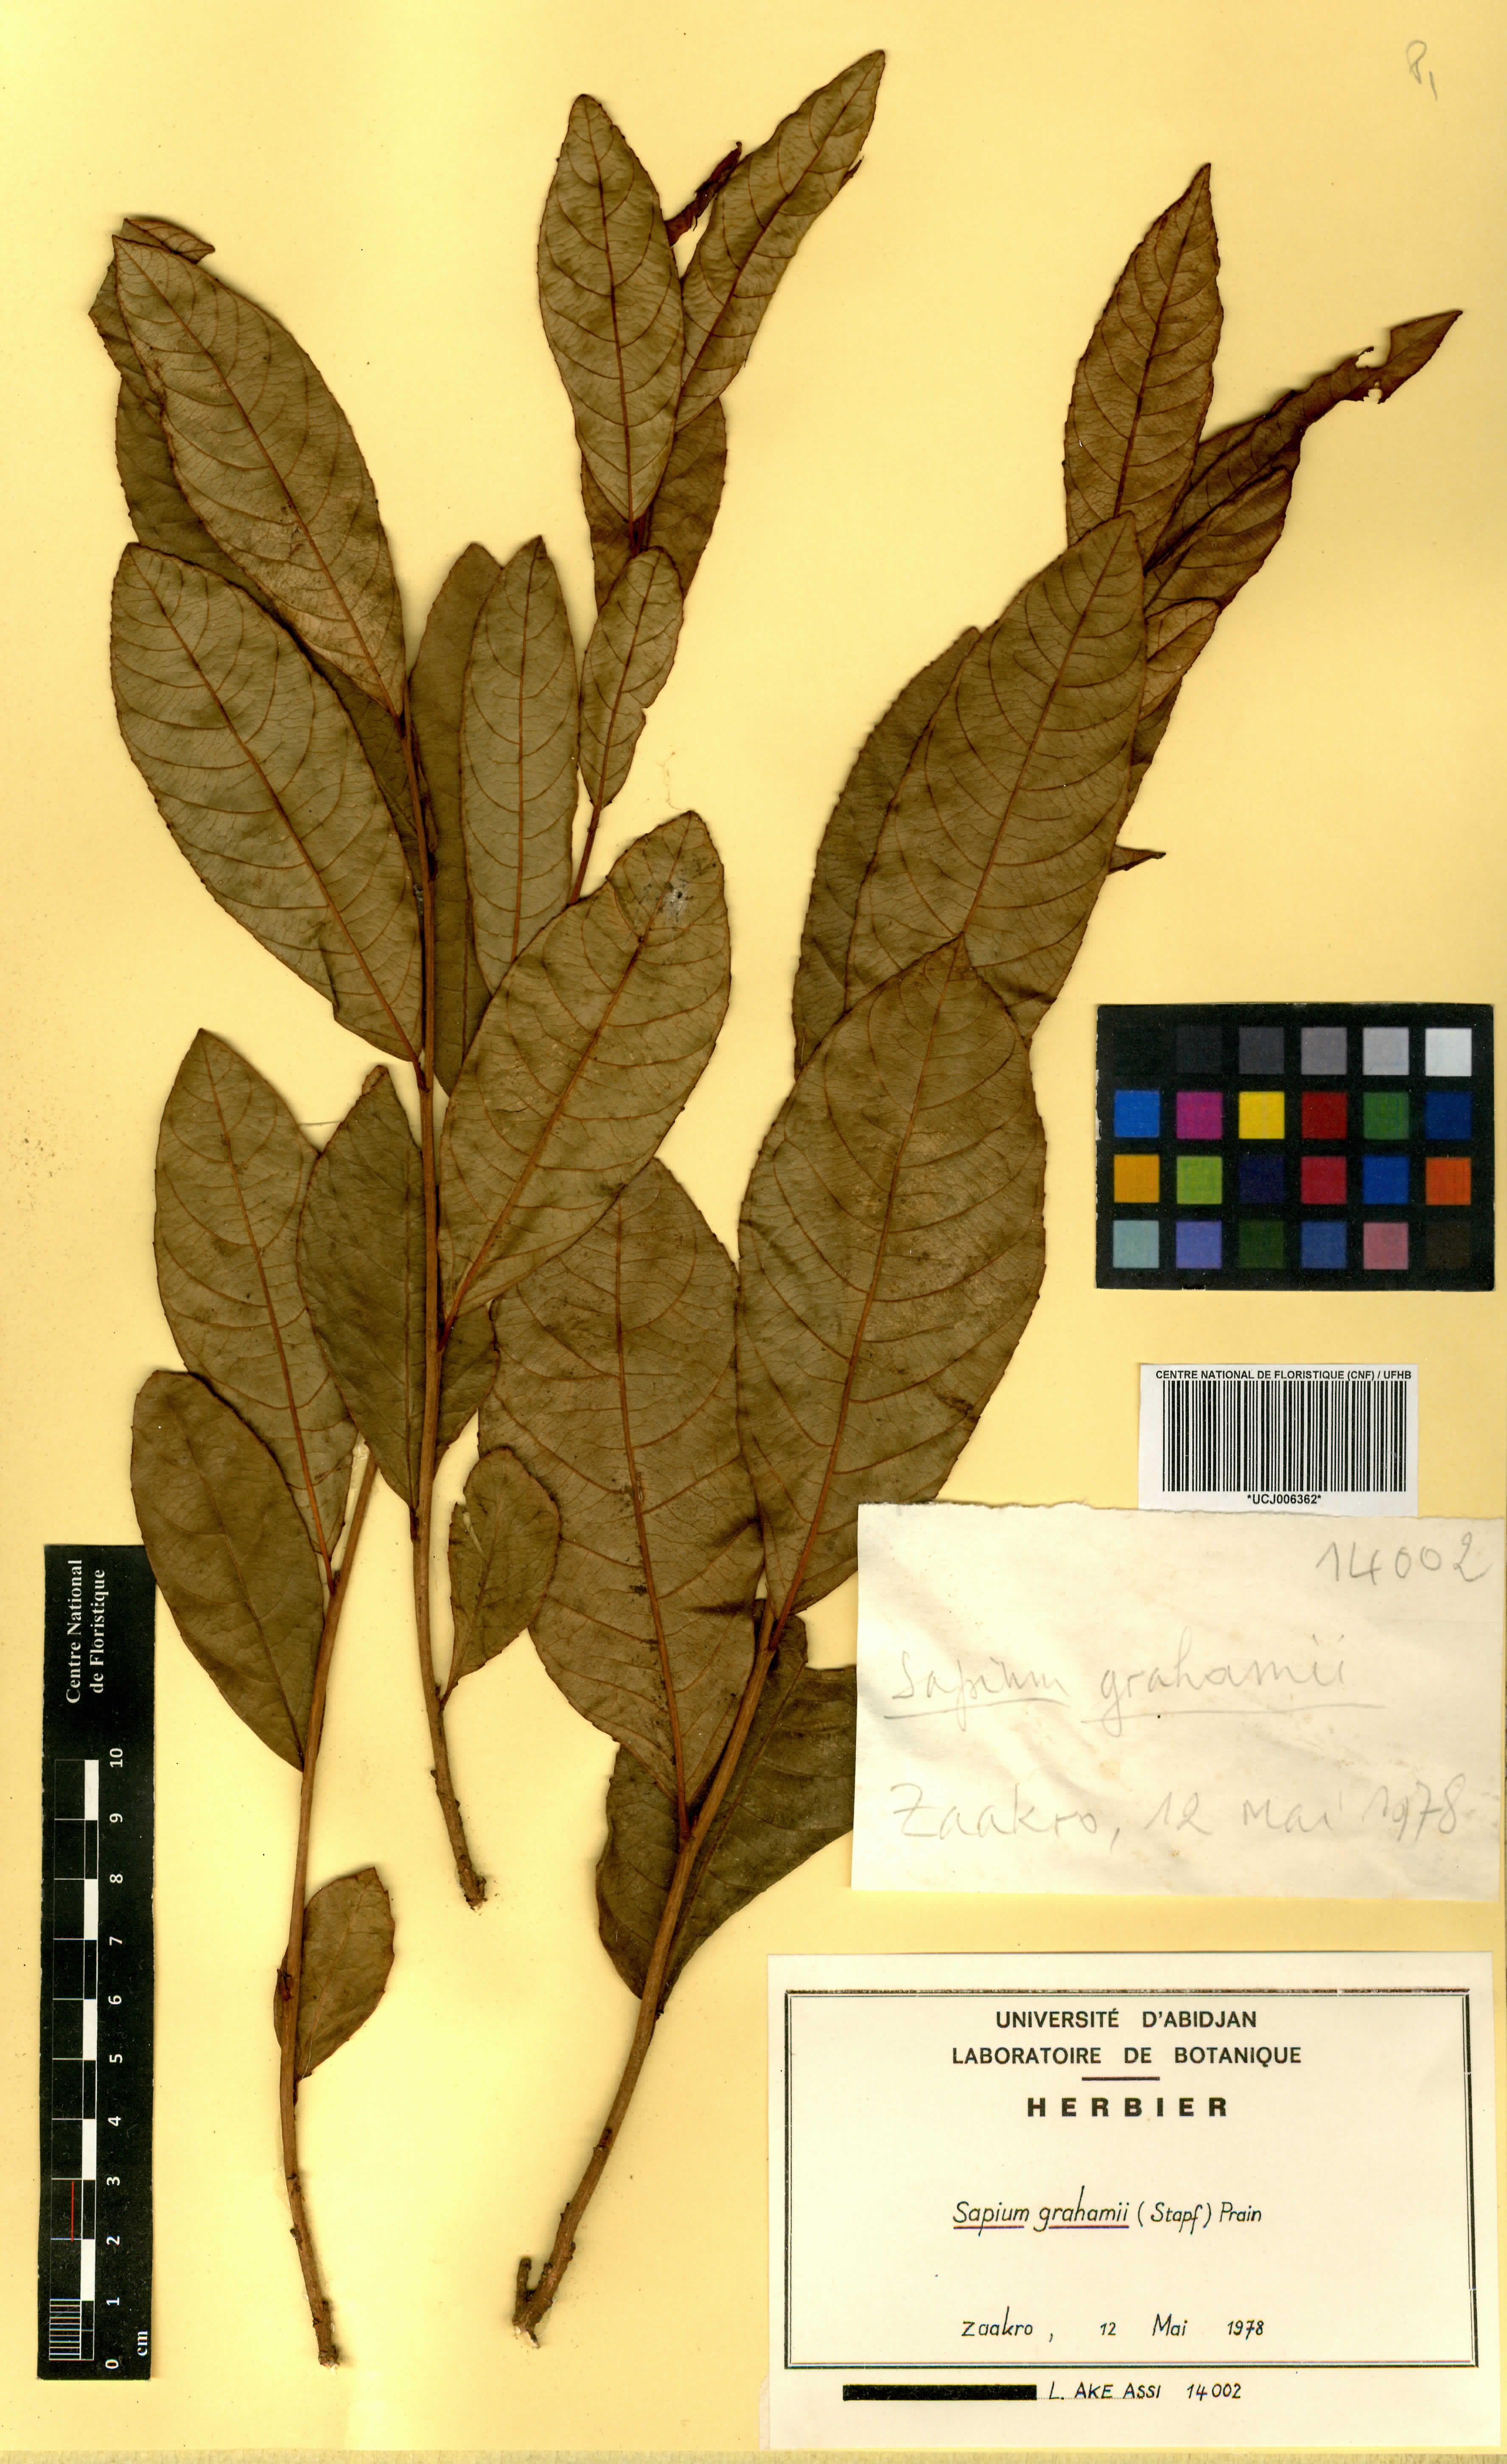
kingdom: Plantae
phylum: Tracheophyta
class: Magnoliopsida
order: Malpighiales
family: Euphorbiaceae
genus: Excoecaria
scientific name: Excoecaria grahamii
